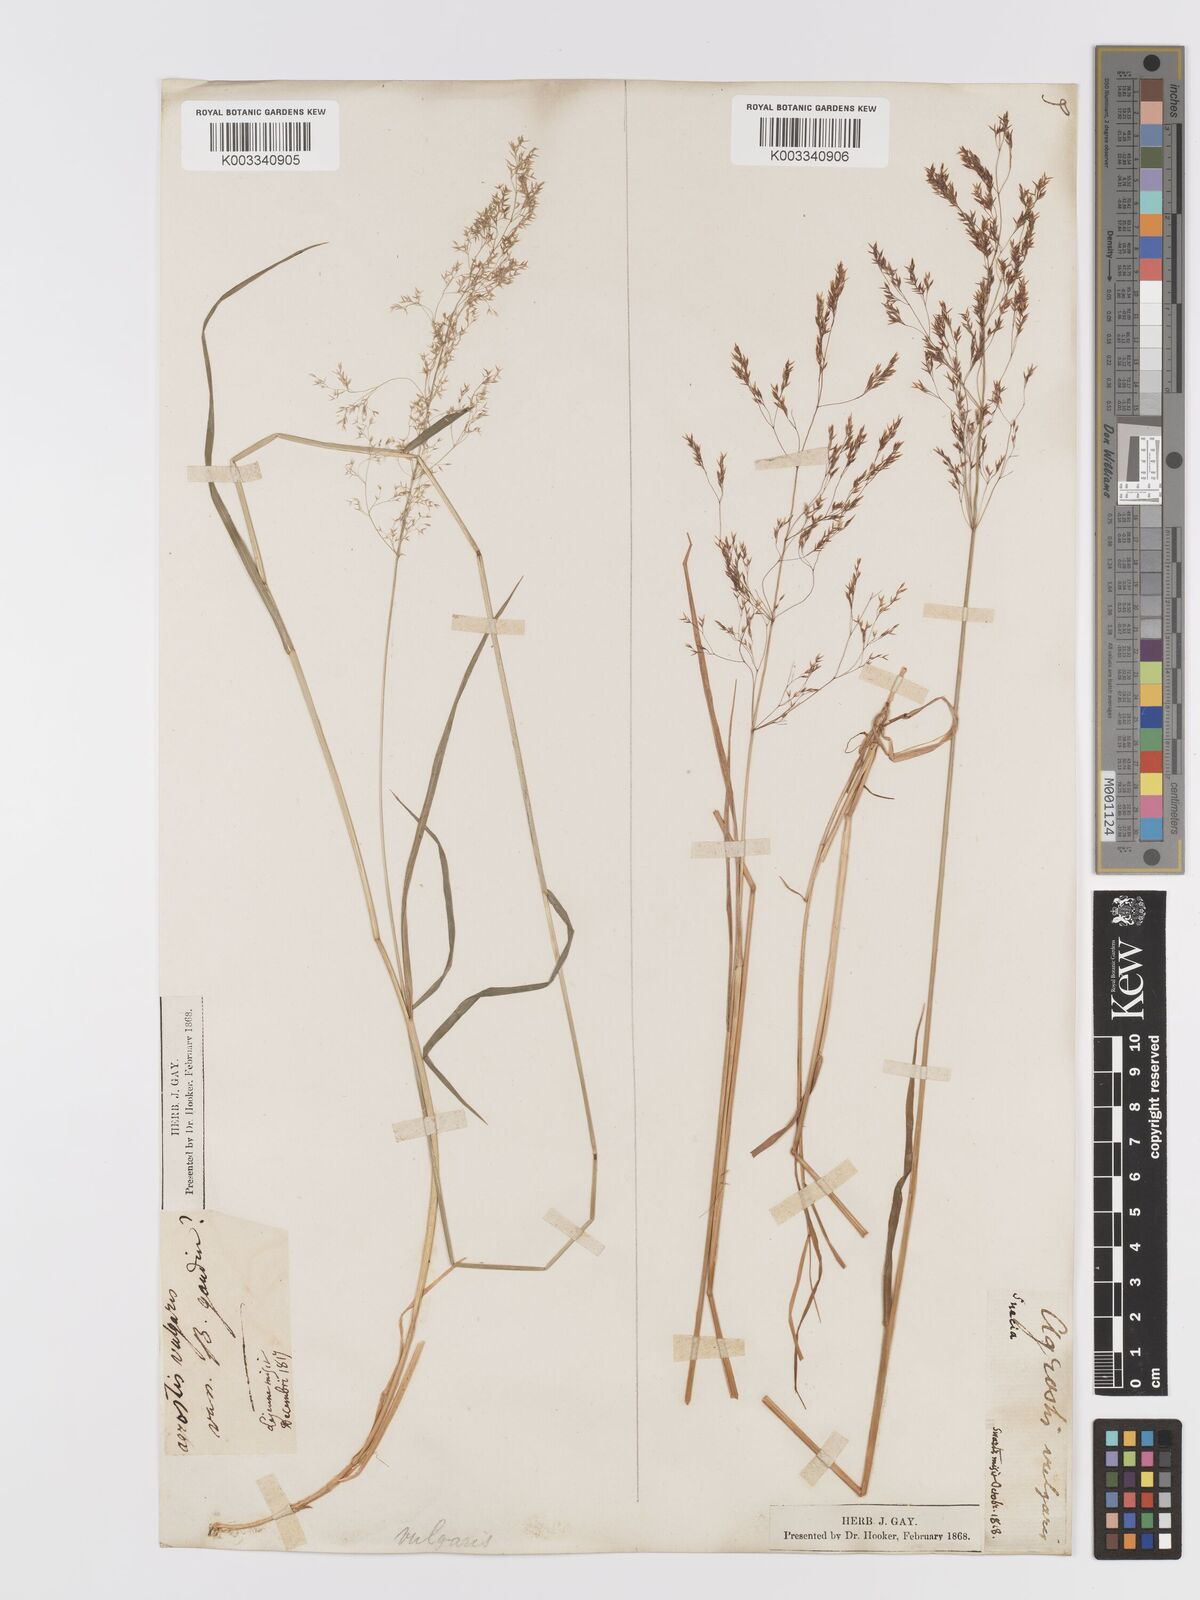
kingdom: Plantae
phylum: Tracheophyta
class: Liliopsida
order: Poales
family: Poaceae
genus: Agrostis
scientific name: Agrostis capillaris
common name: Colonial bentgrass
